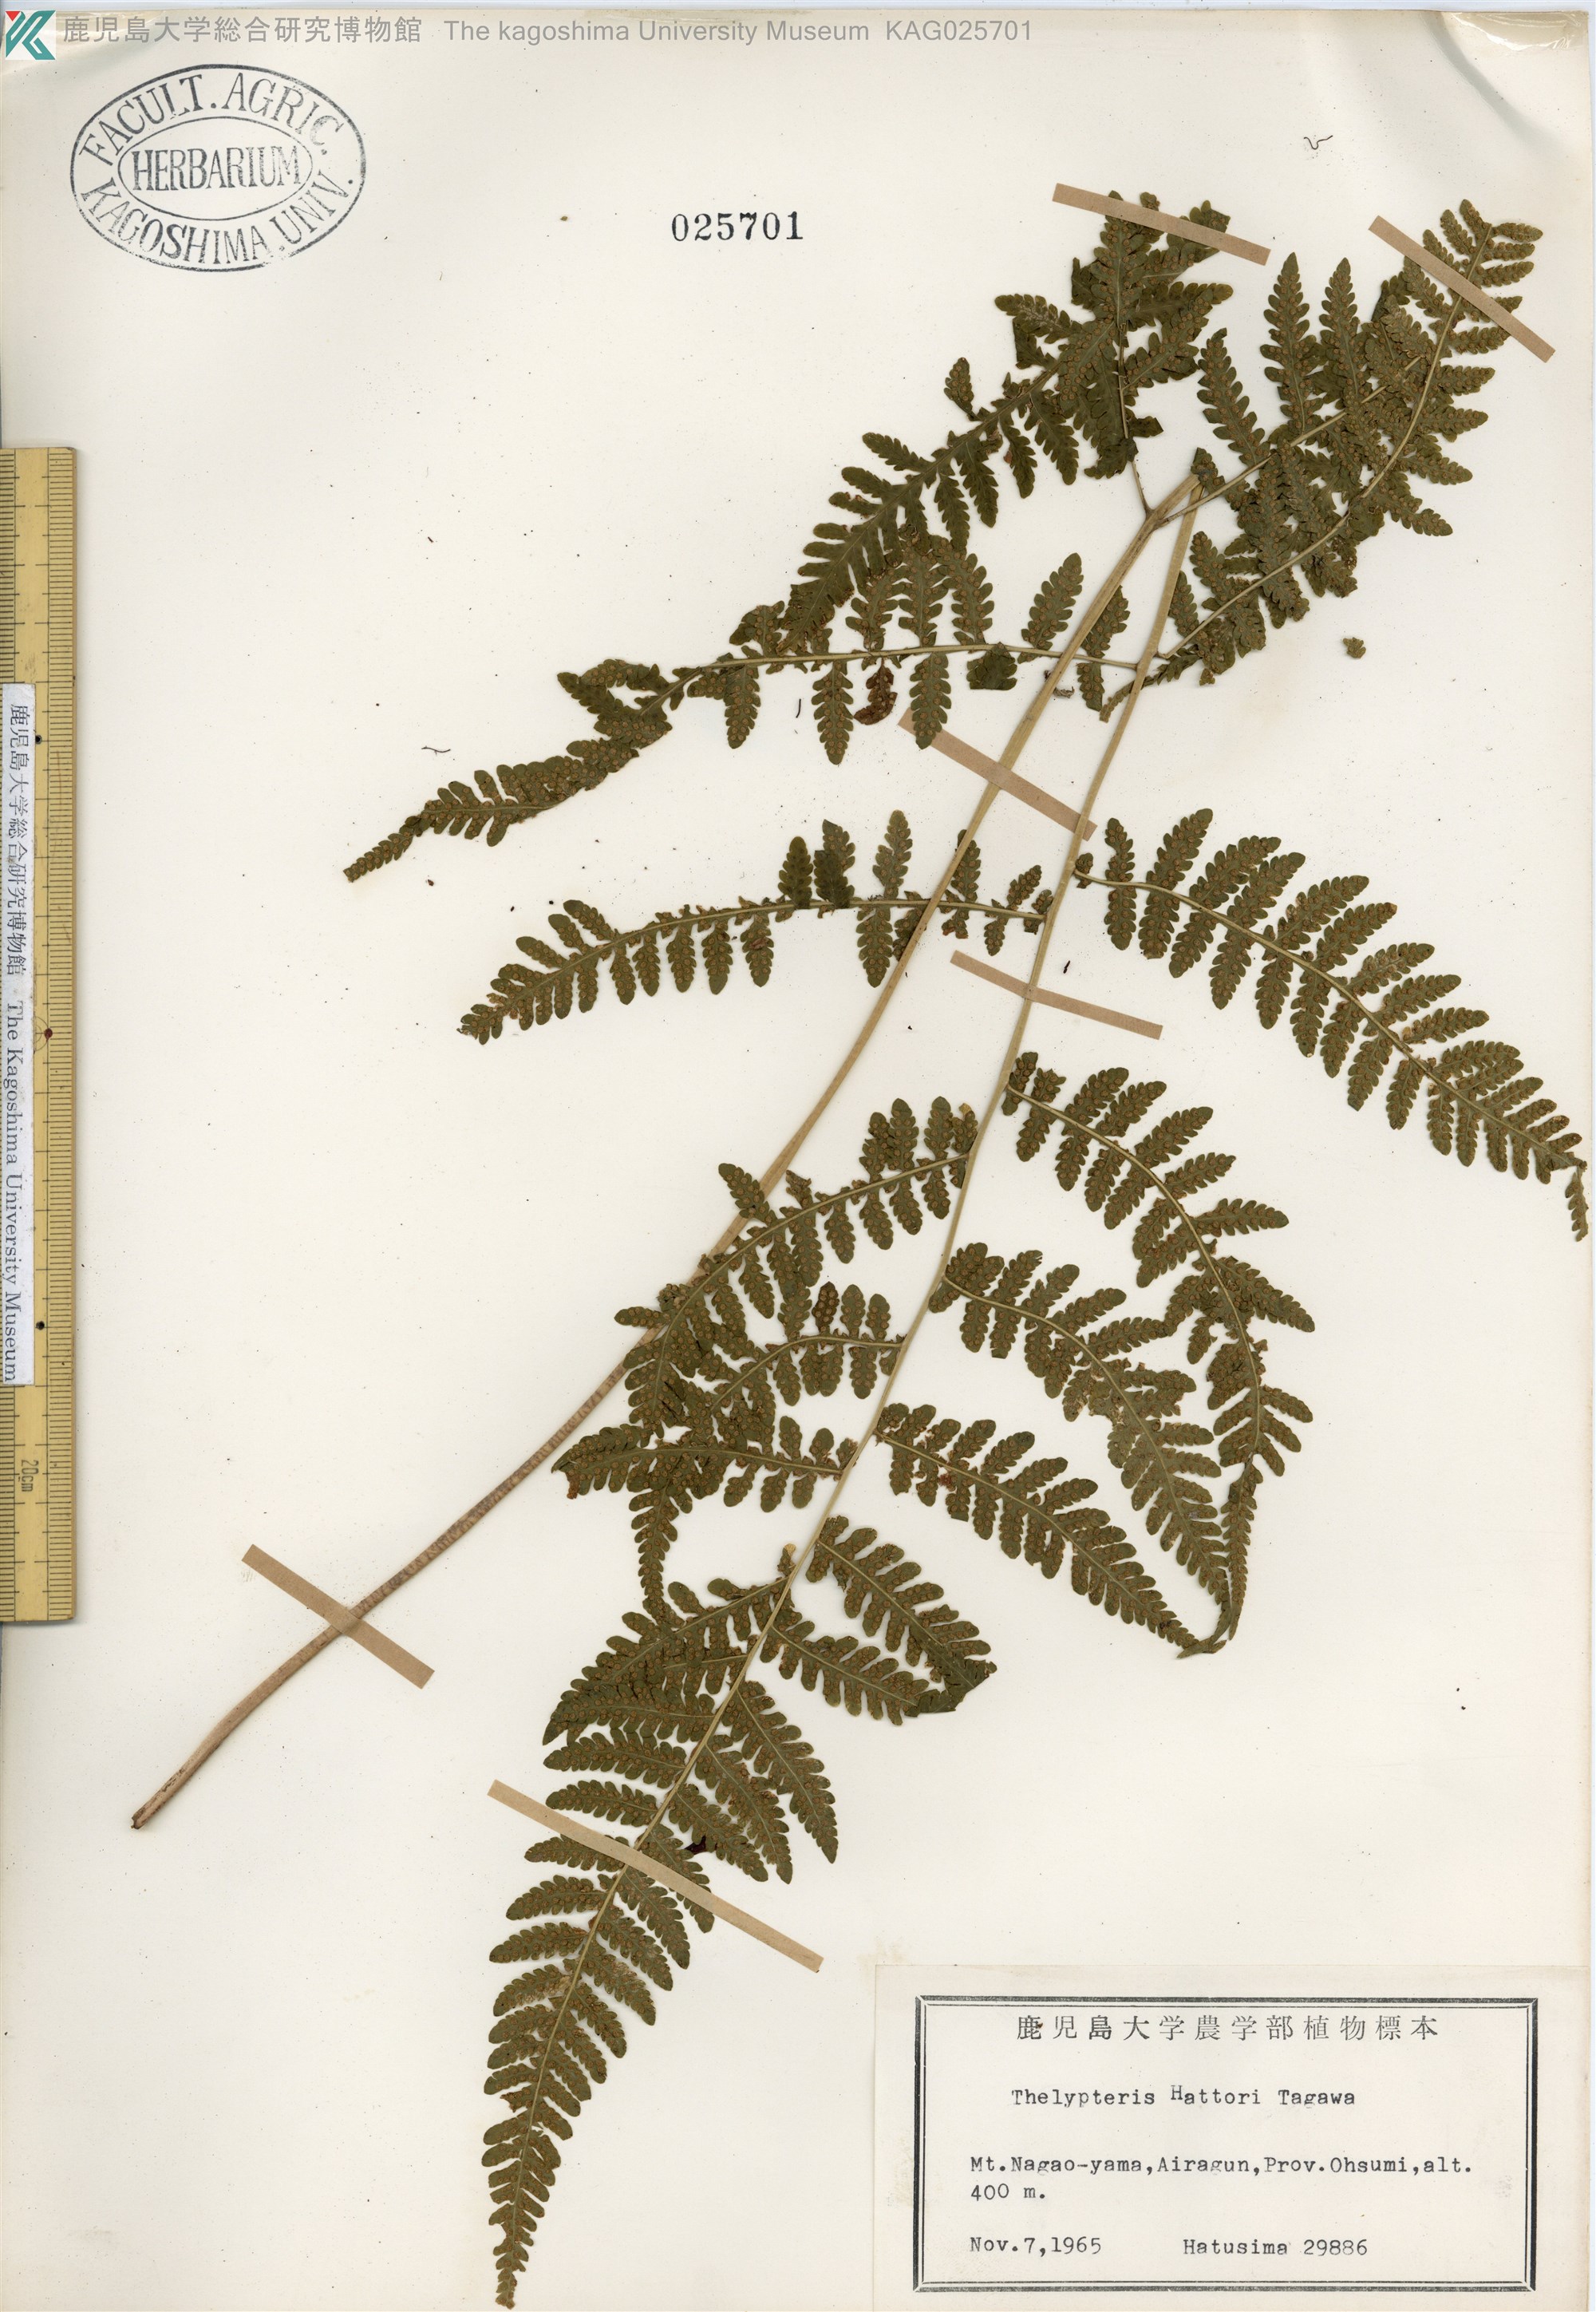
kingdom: Plantae
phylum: Tracheophyta
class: Polypodiopsida
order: Polypodiales
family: Thelypteridaceae
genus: Metathelypteris
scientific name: Metathelypteris hattori
